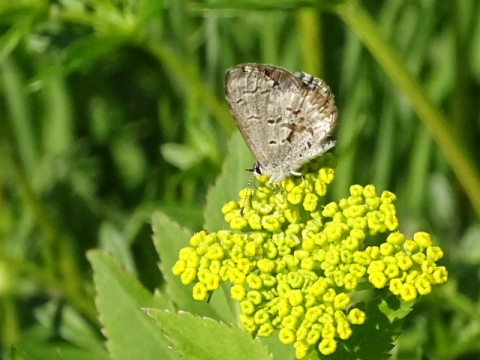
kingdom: Animalia
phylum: Arthropoda
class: Insecta
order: Lepidoptera
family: Lycaenidae
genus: Celastrina
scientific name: Celastrina lucia
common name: Northern Spring Azure
